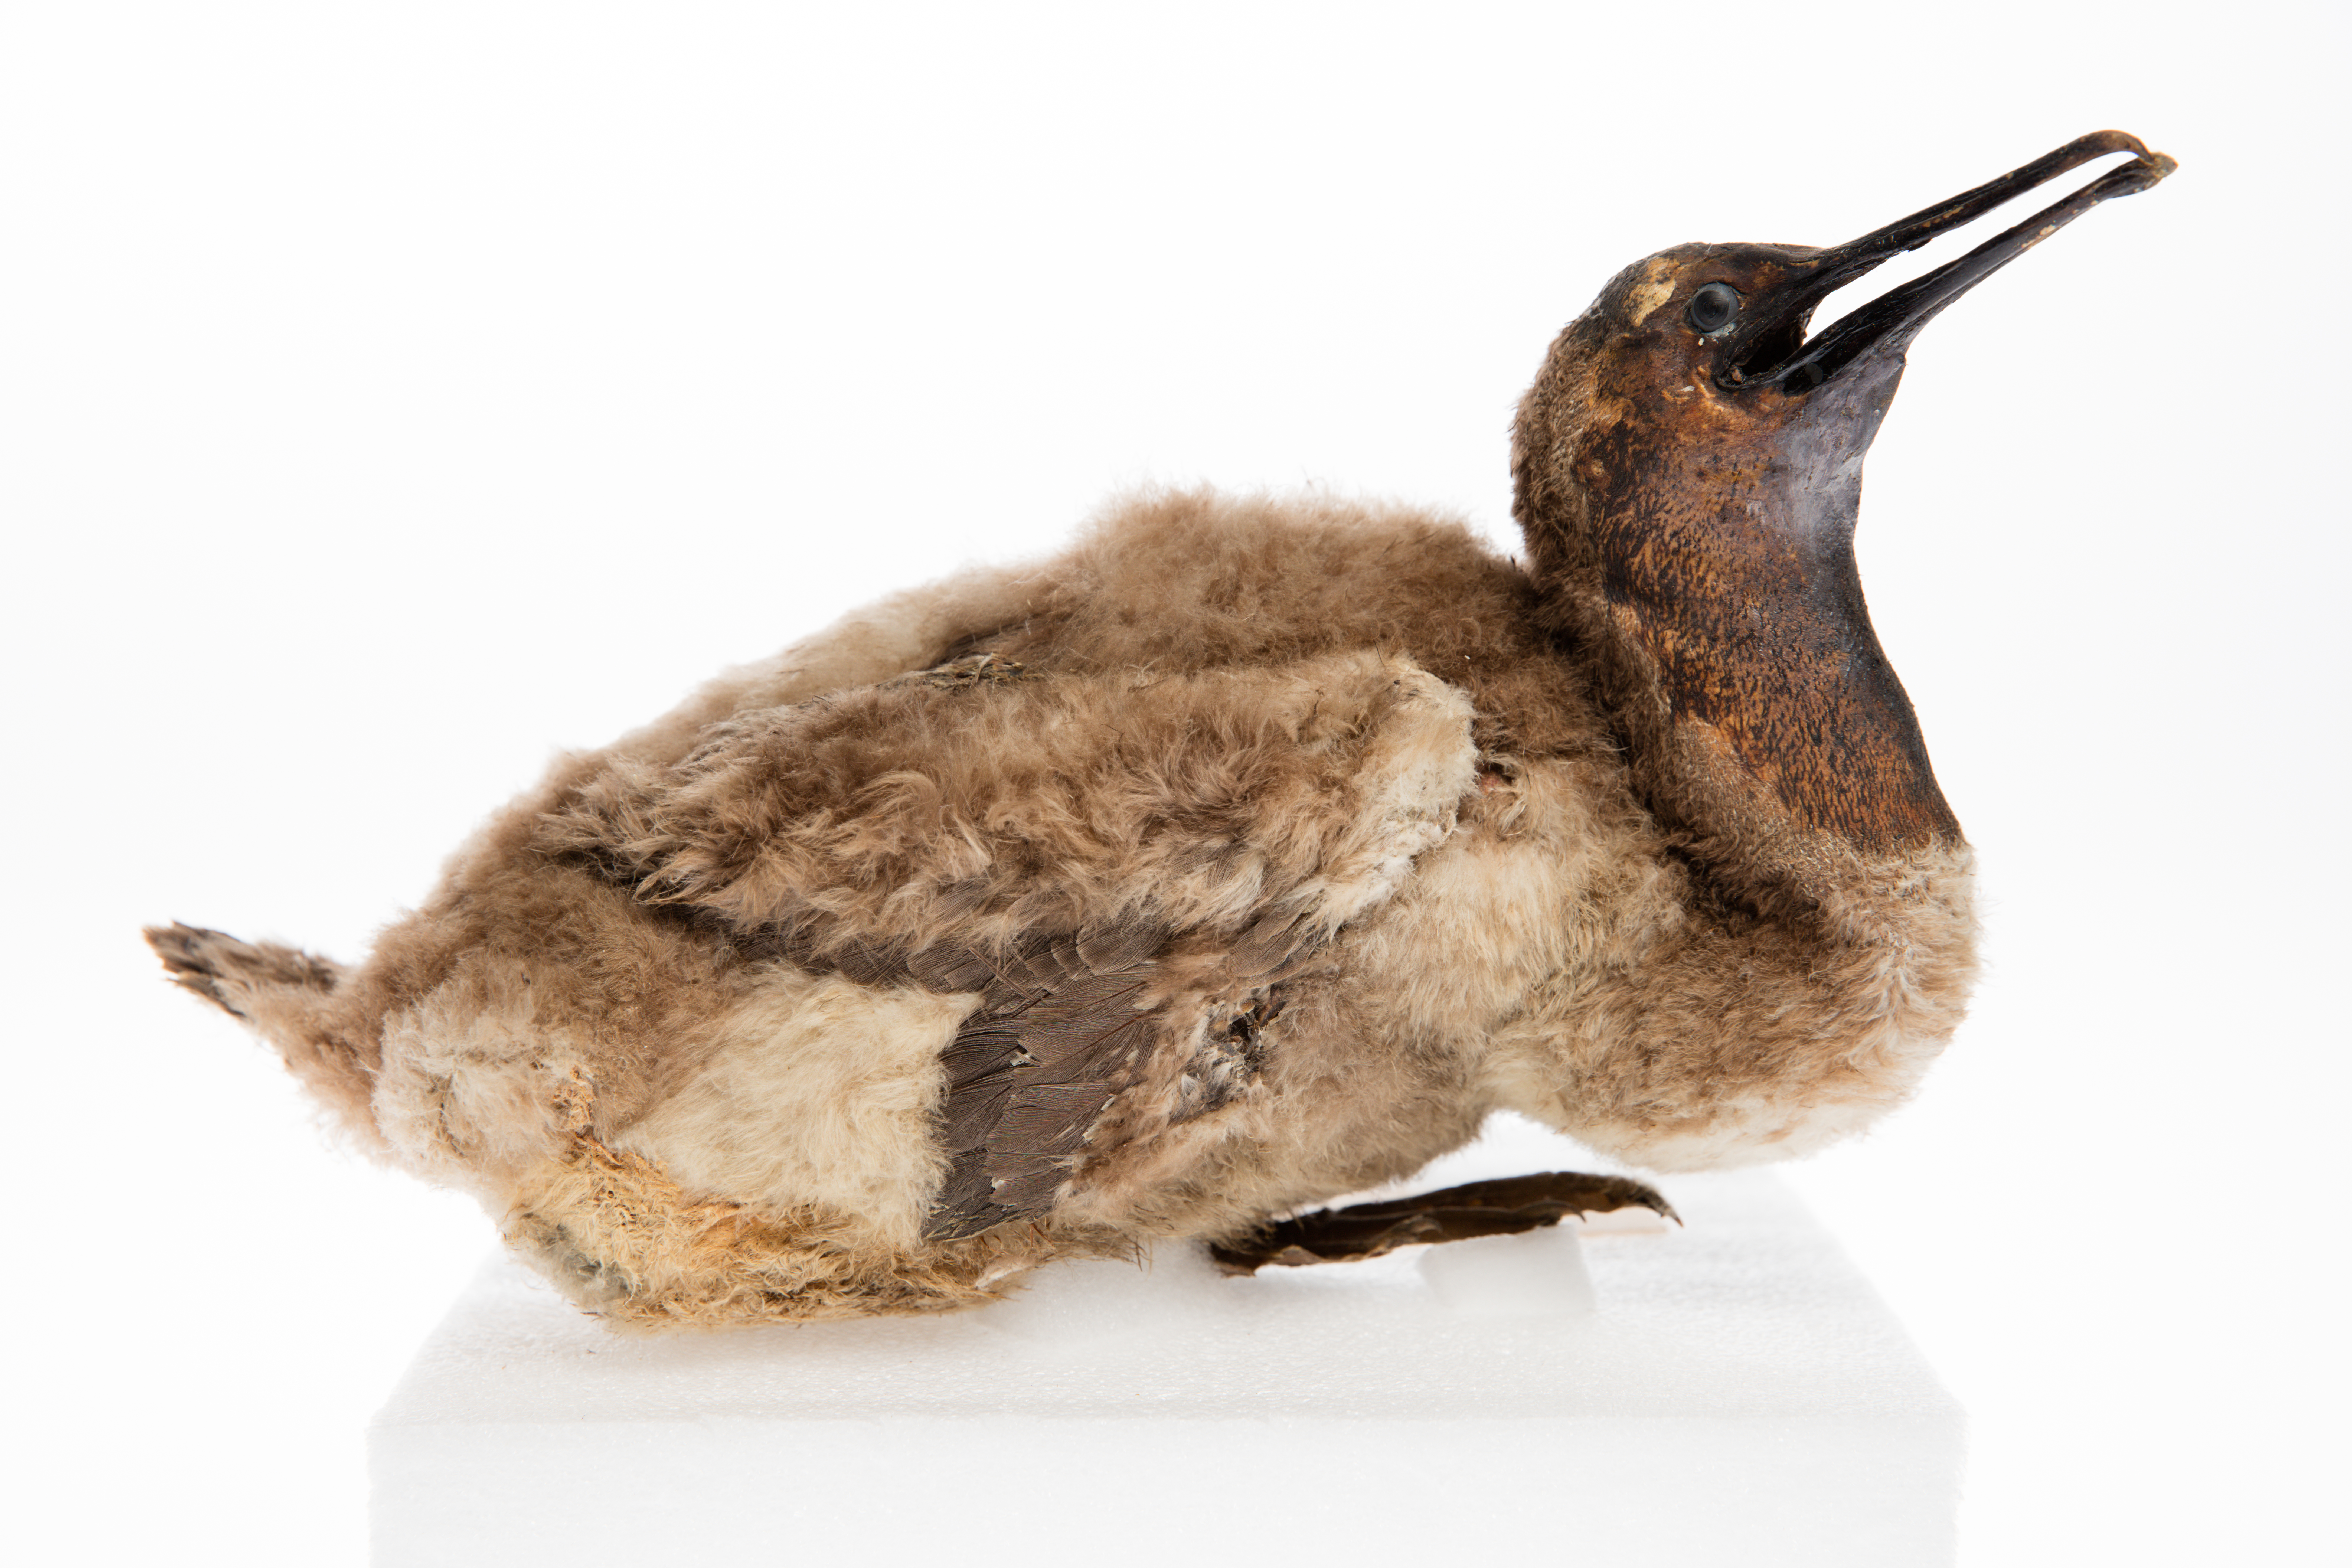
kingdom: Animalia
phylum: Chordata
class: Aves
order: Suliformes
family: Phalacrocoracidae
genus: Phalacrocorax
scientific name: Phalacrocorax punctatus
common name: Spotted shag
